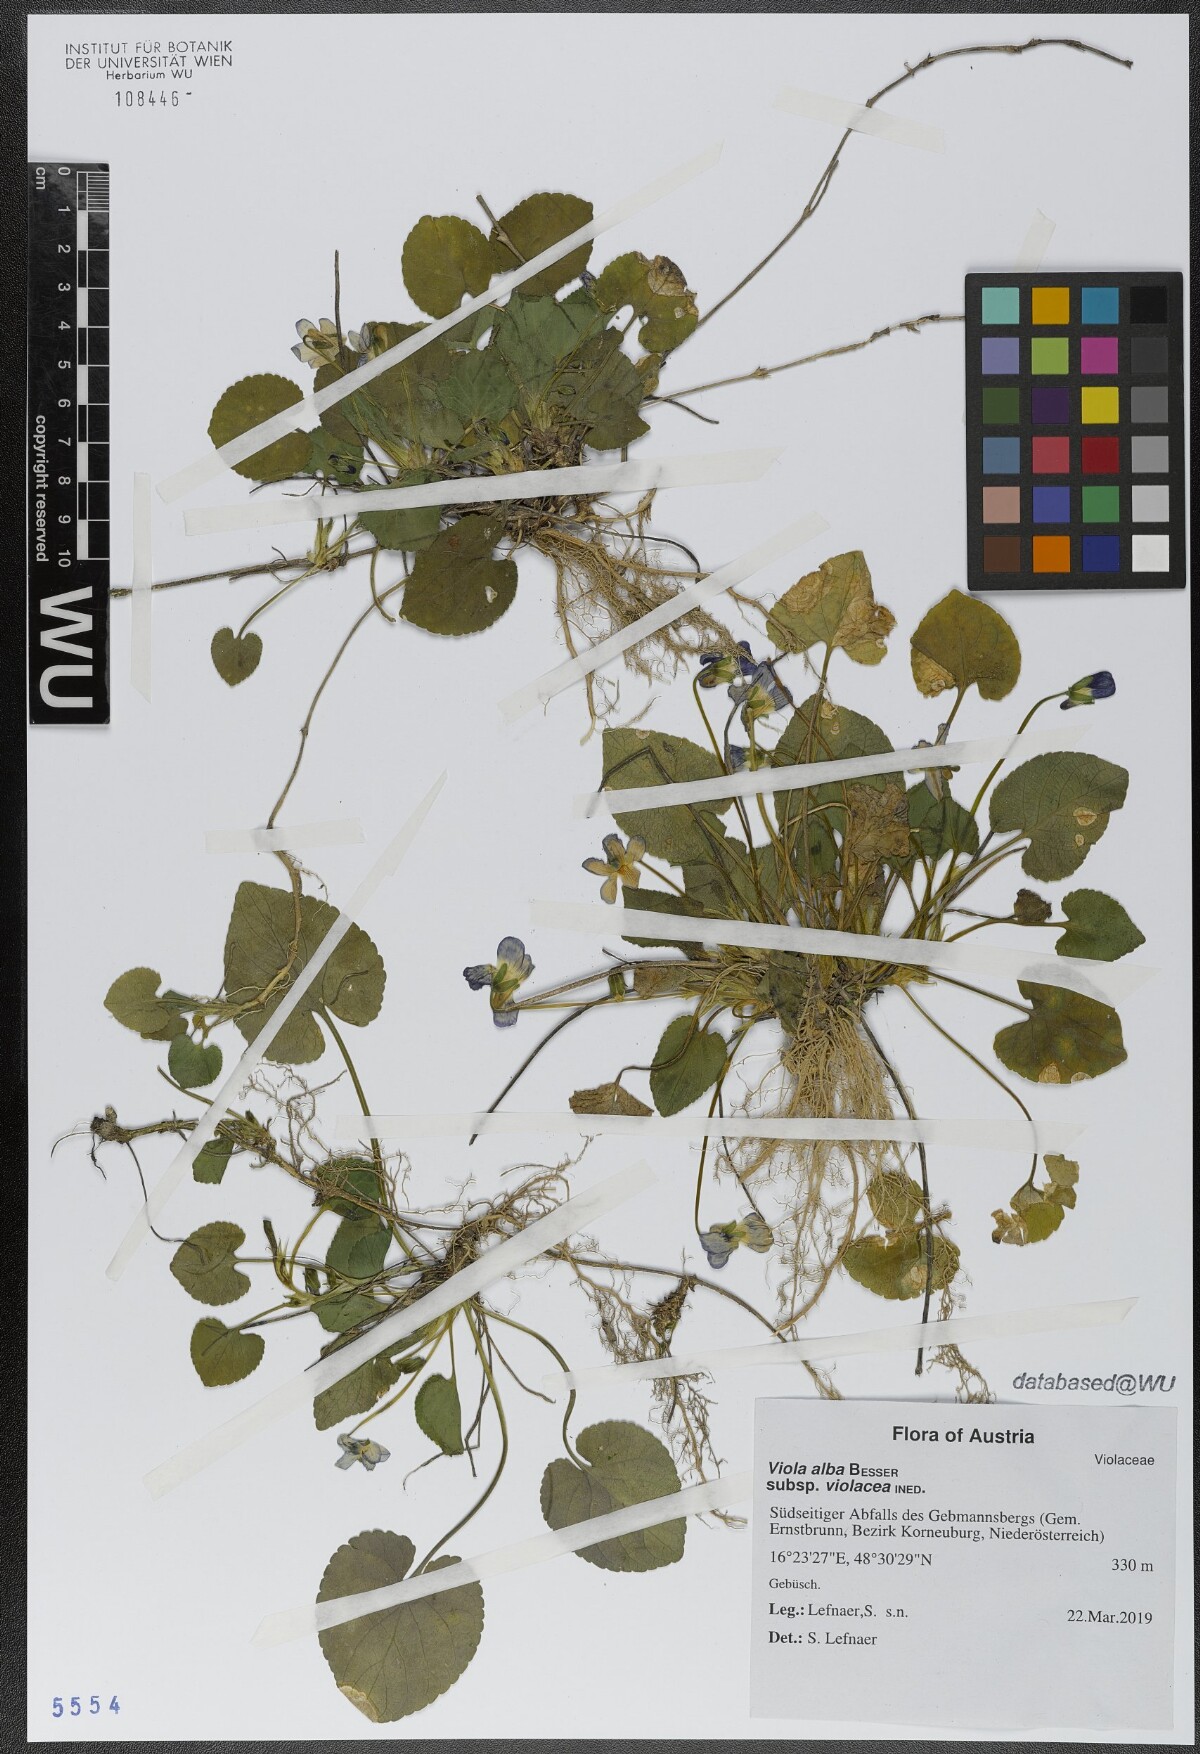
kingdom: Plantae
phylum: Tracheophyta
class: Magnoliopsida
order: Malpighiales
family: Violaceae
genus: Viola
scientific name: Viola alba
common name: White violet
